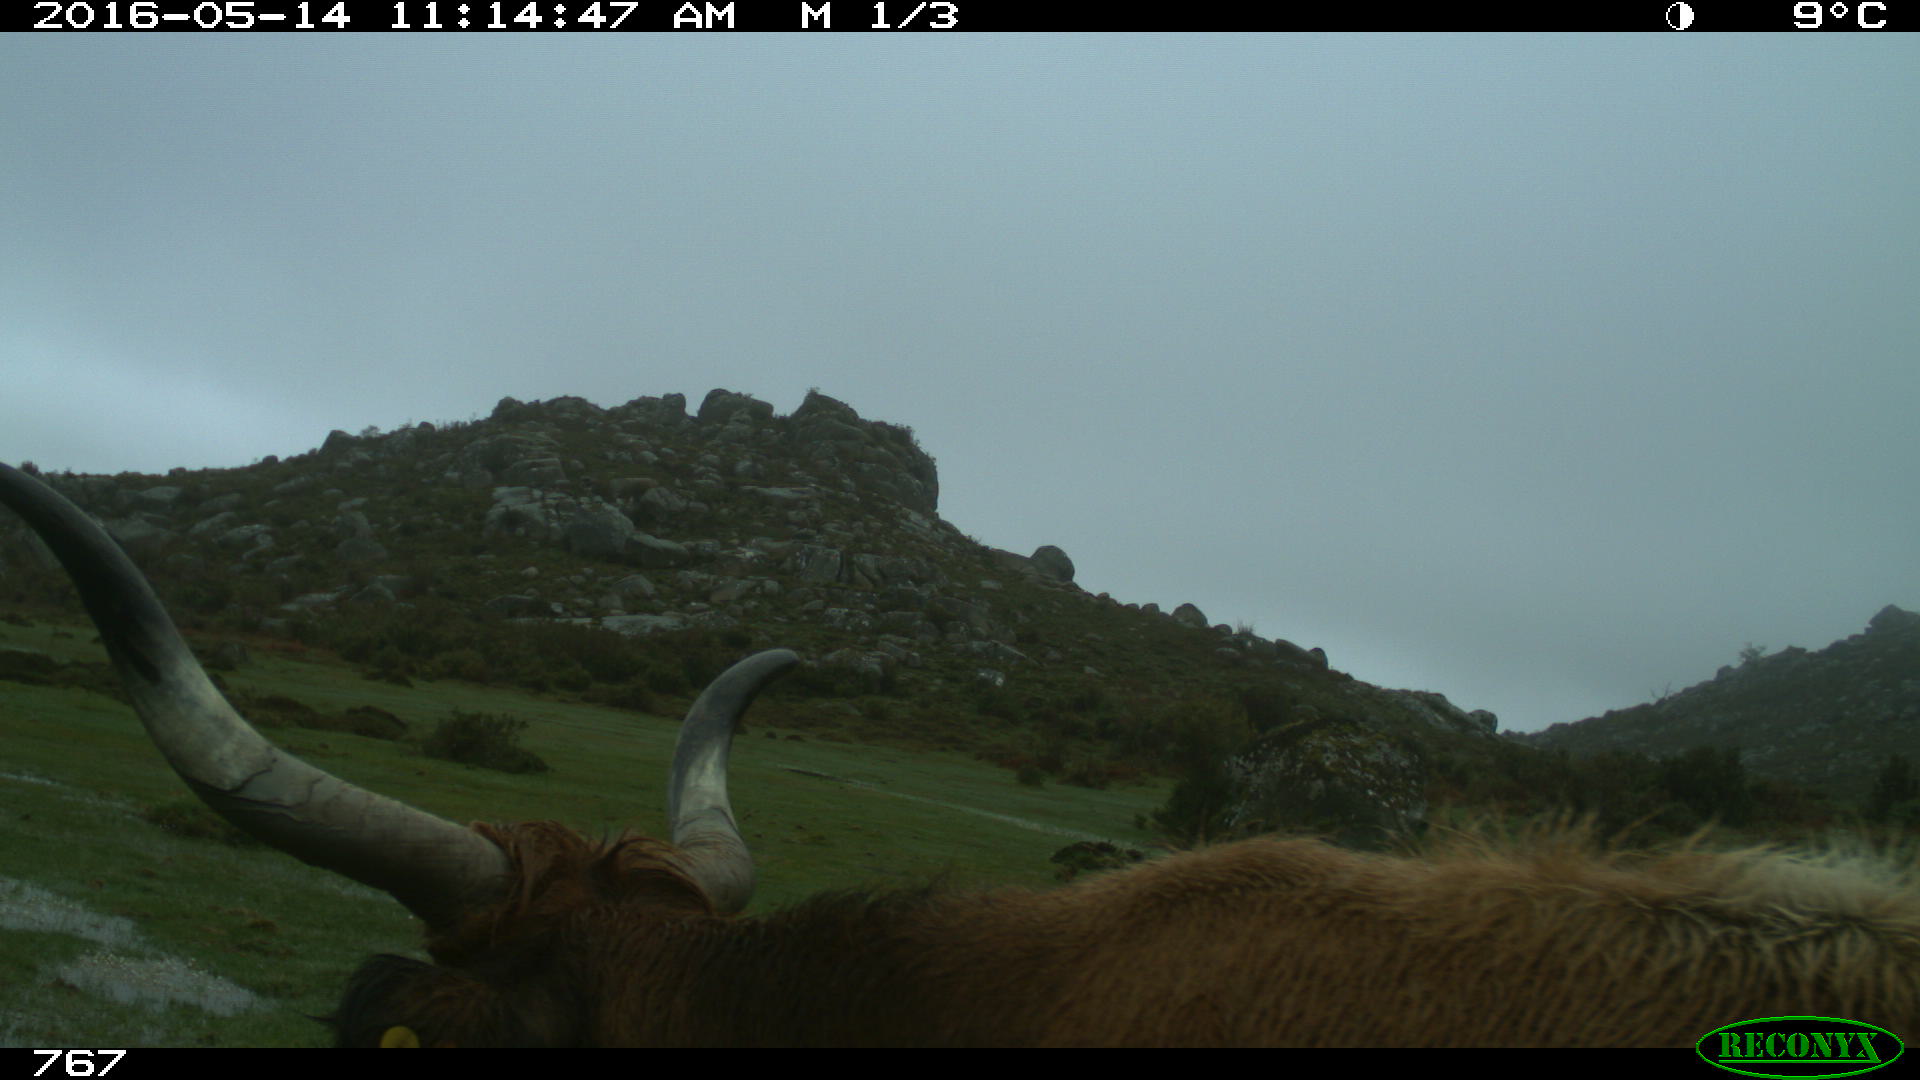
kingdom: Animalia
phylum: Chordata
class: Mammalia
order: Artiodactyla
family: Bovidae
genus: Bos
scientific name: Bos taurus
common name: Domesticated cattle
